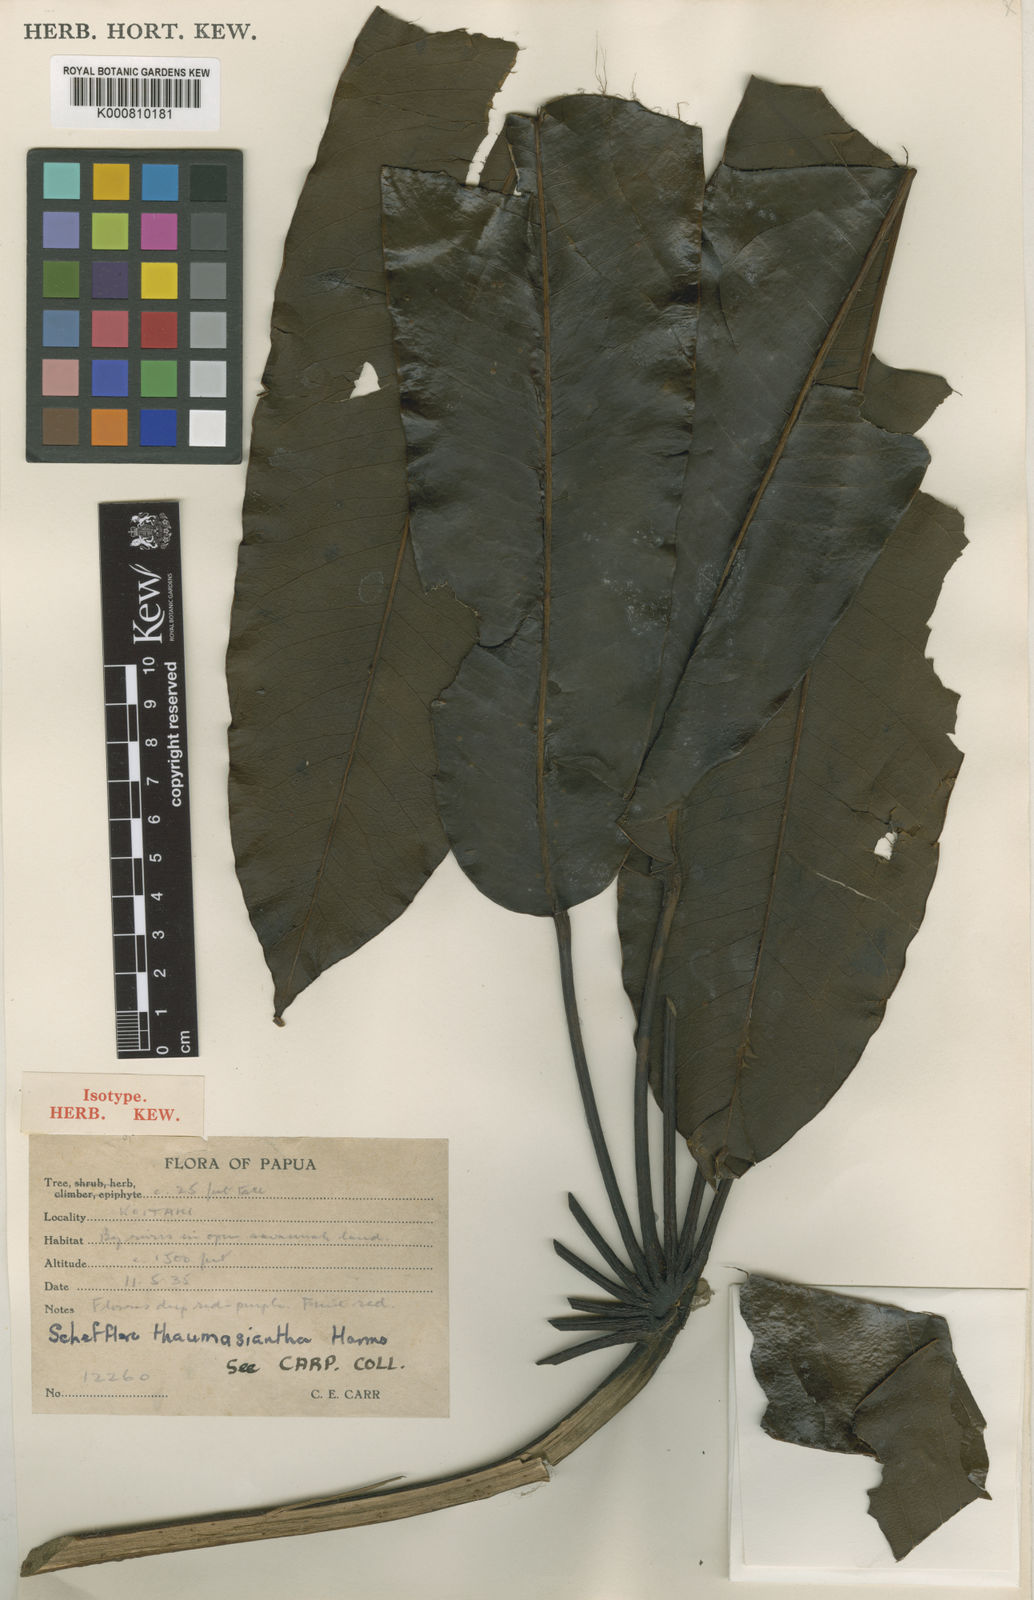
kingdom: Plantae
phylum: Tracheophyta
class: Magnoliopsida
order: Apiales
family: Araliaceae
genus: Heptapleurum
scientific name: Heptapleurum thaumasianthum
